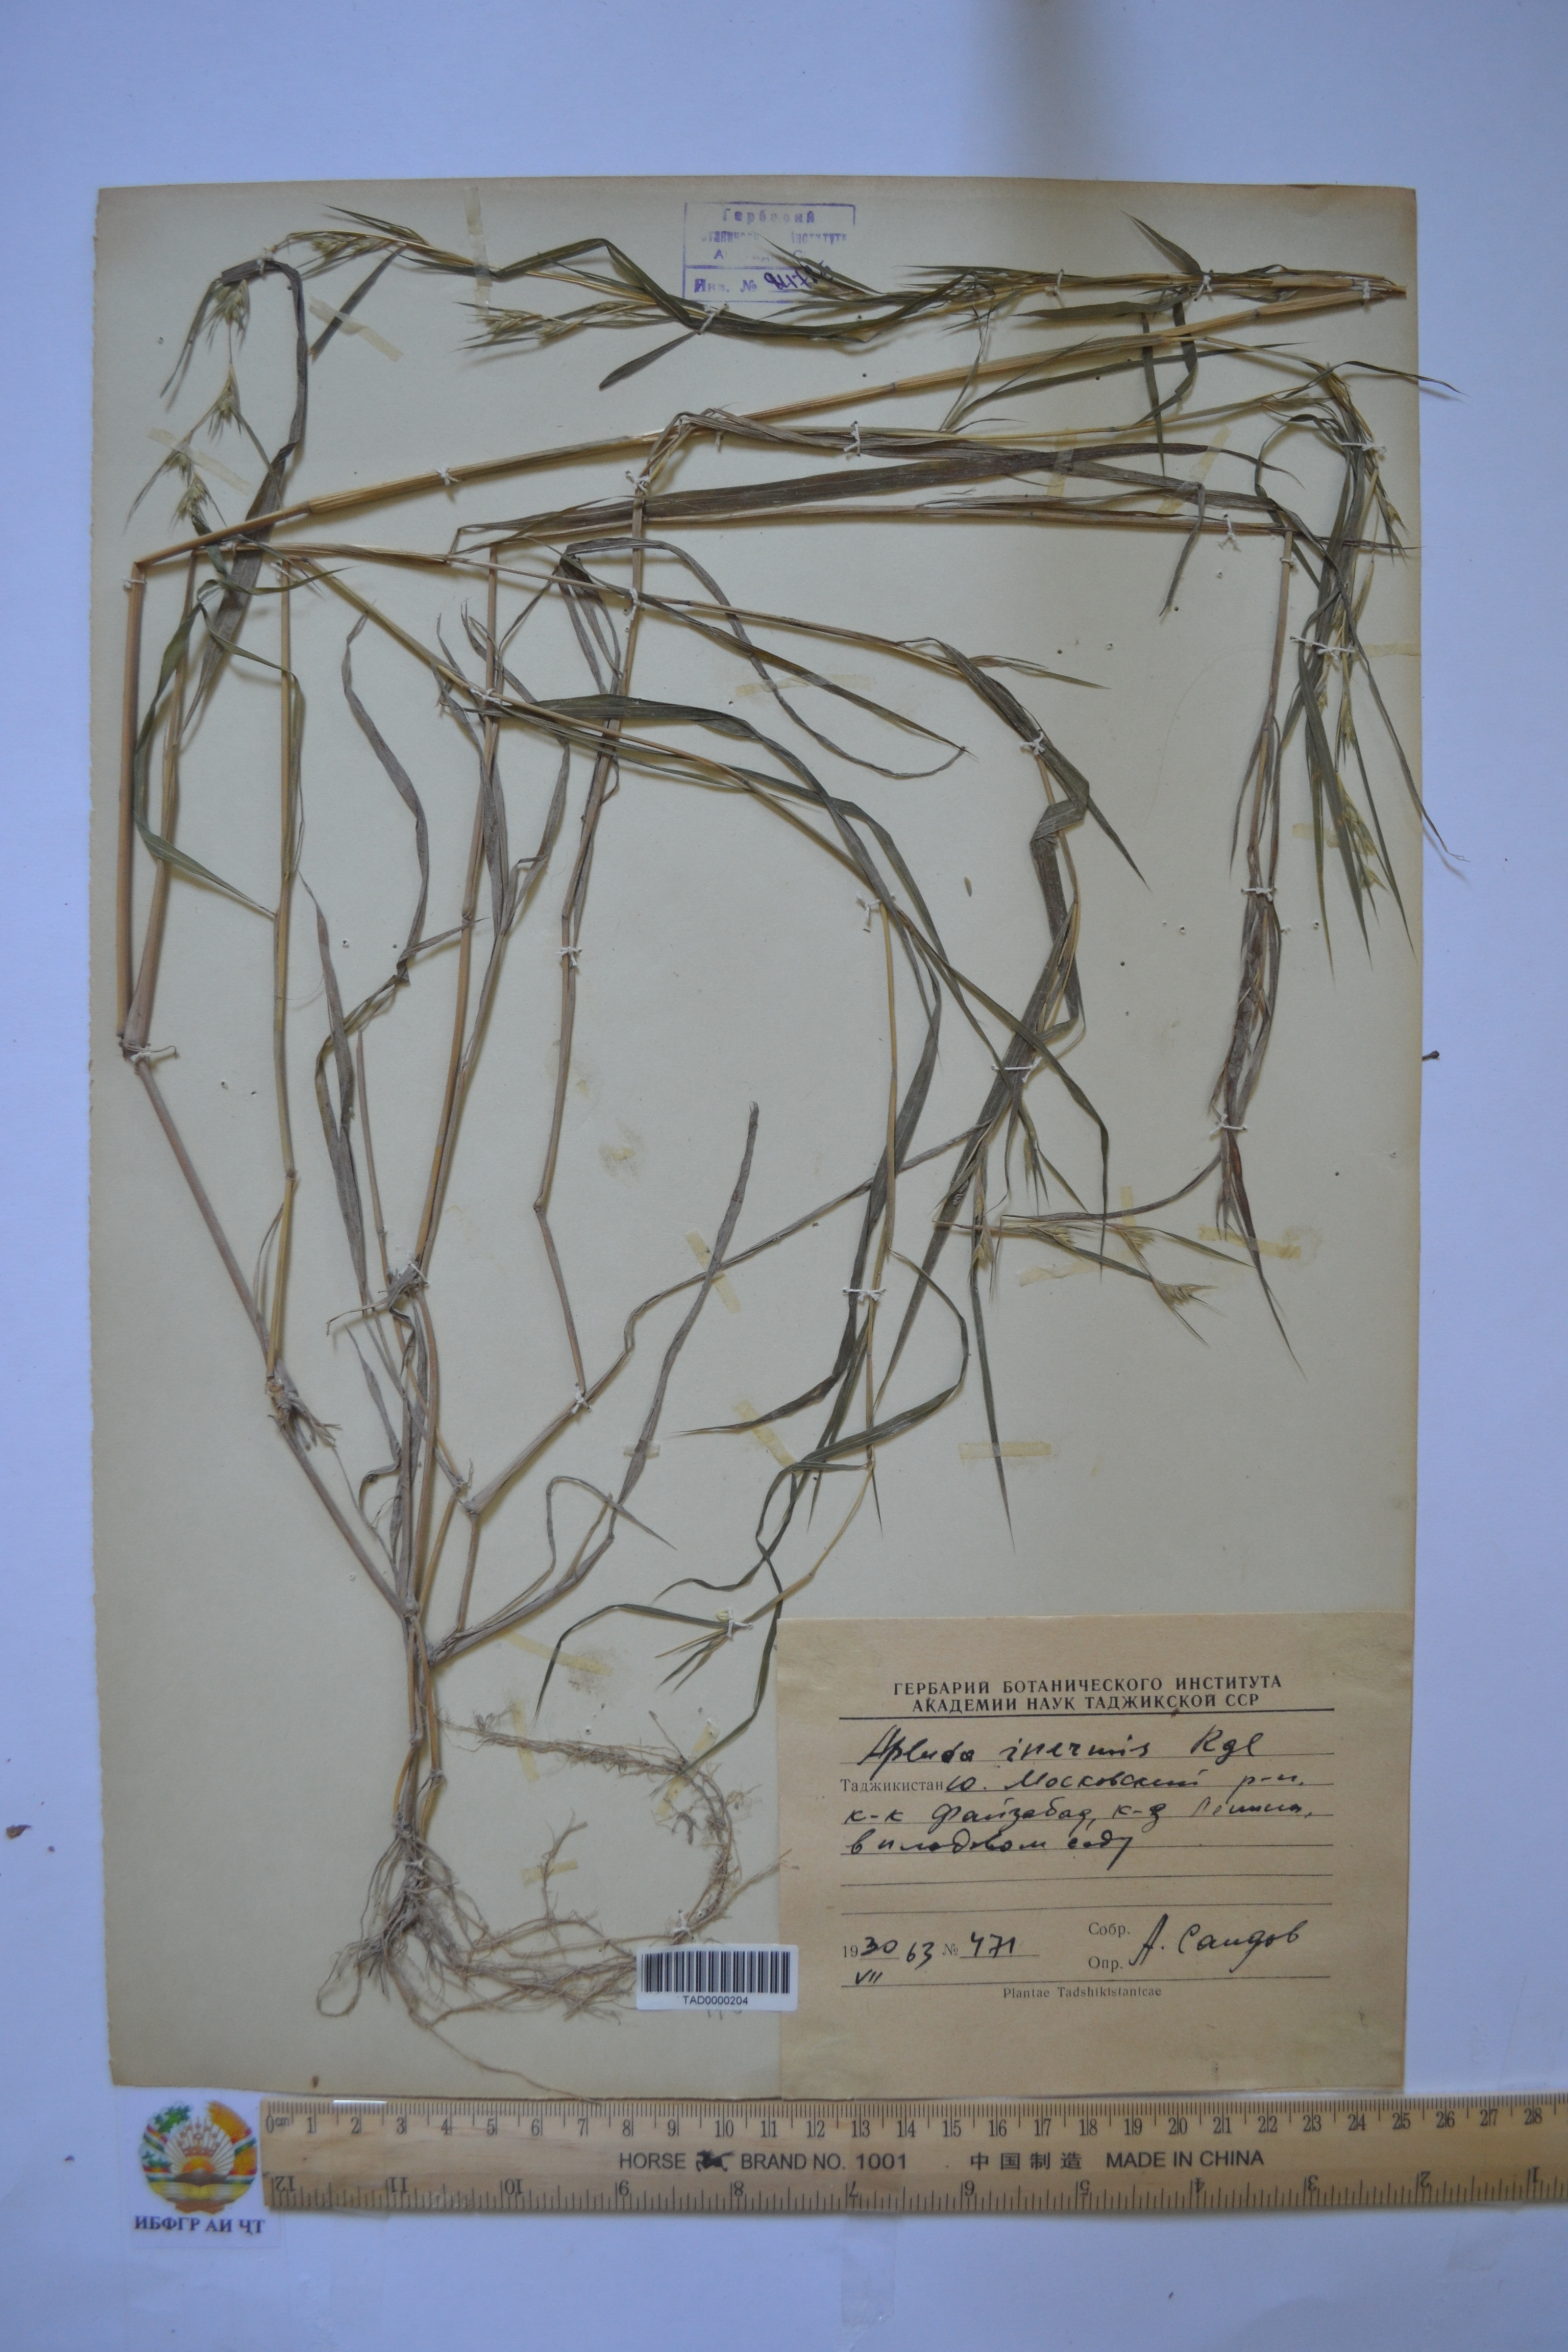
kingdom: Plantae
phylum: Tracheophyta
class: Liliopsida
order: Poales
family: Poaceae
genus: Apluda
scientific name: Apluda mutica
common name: Mauritian grass
